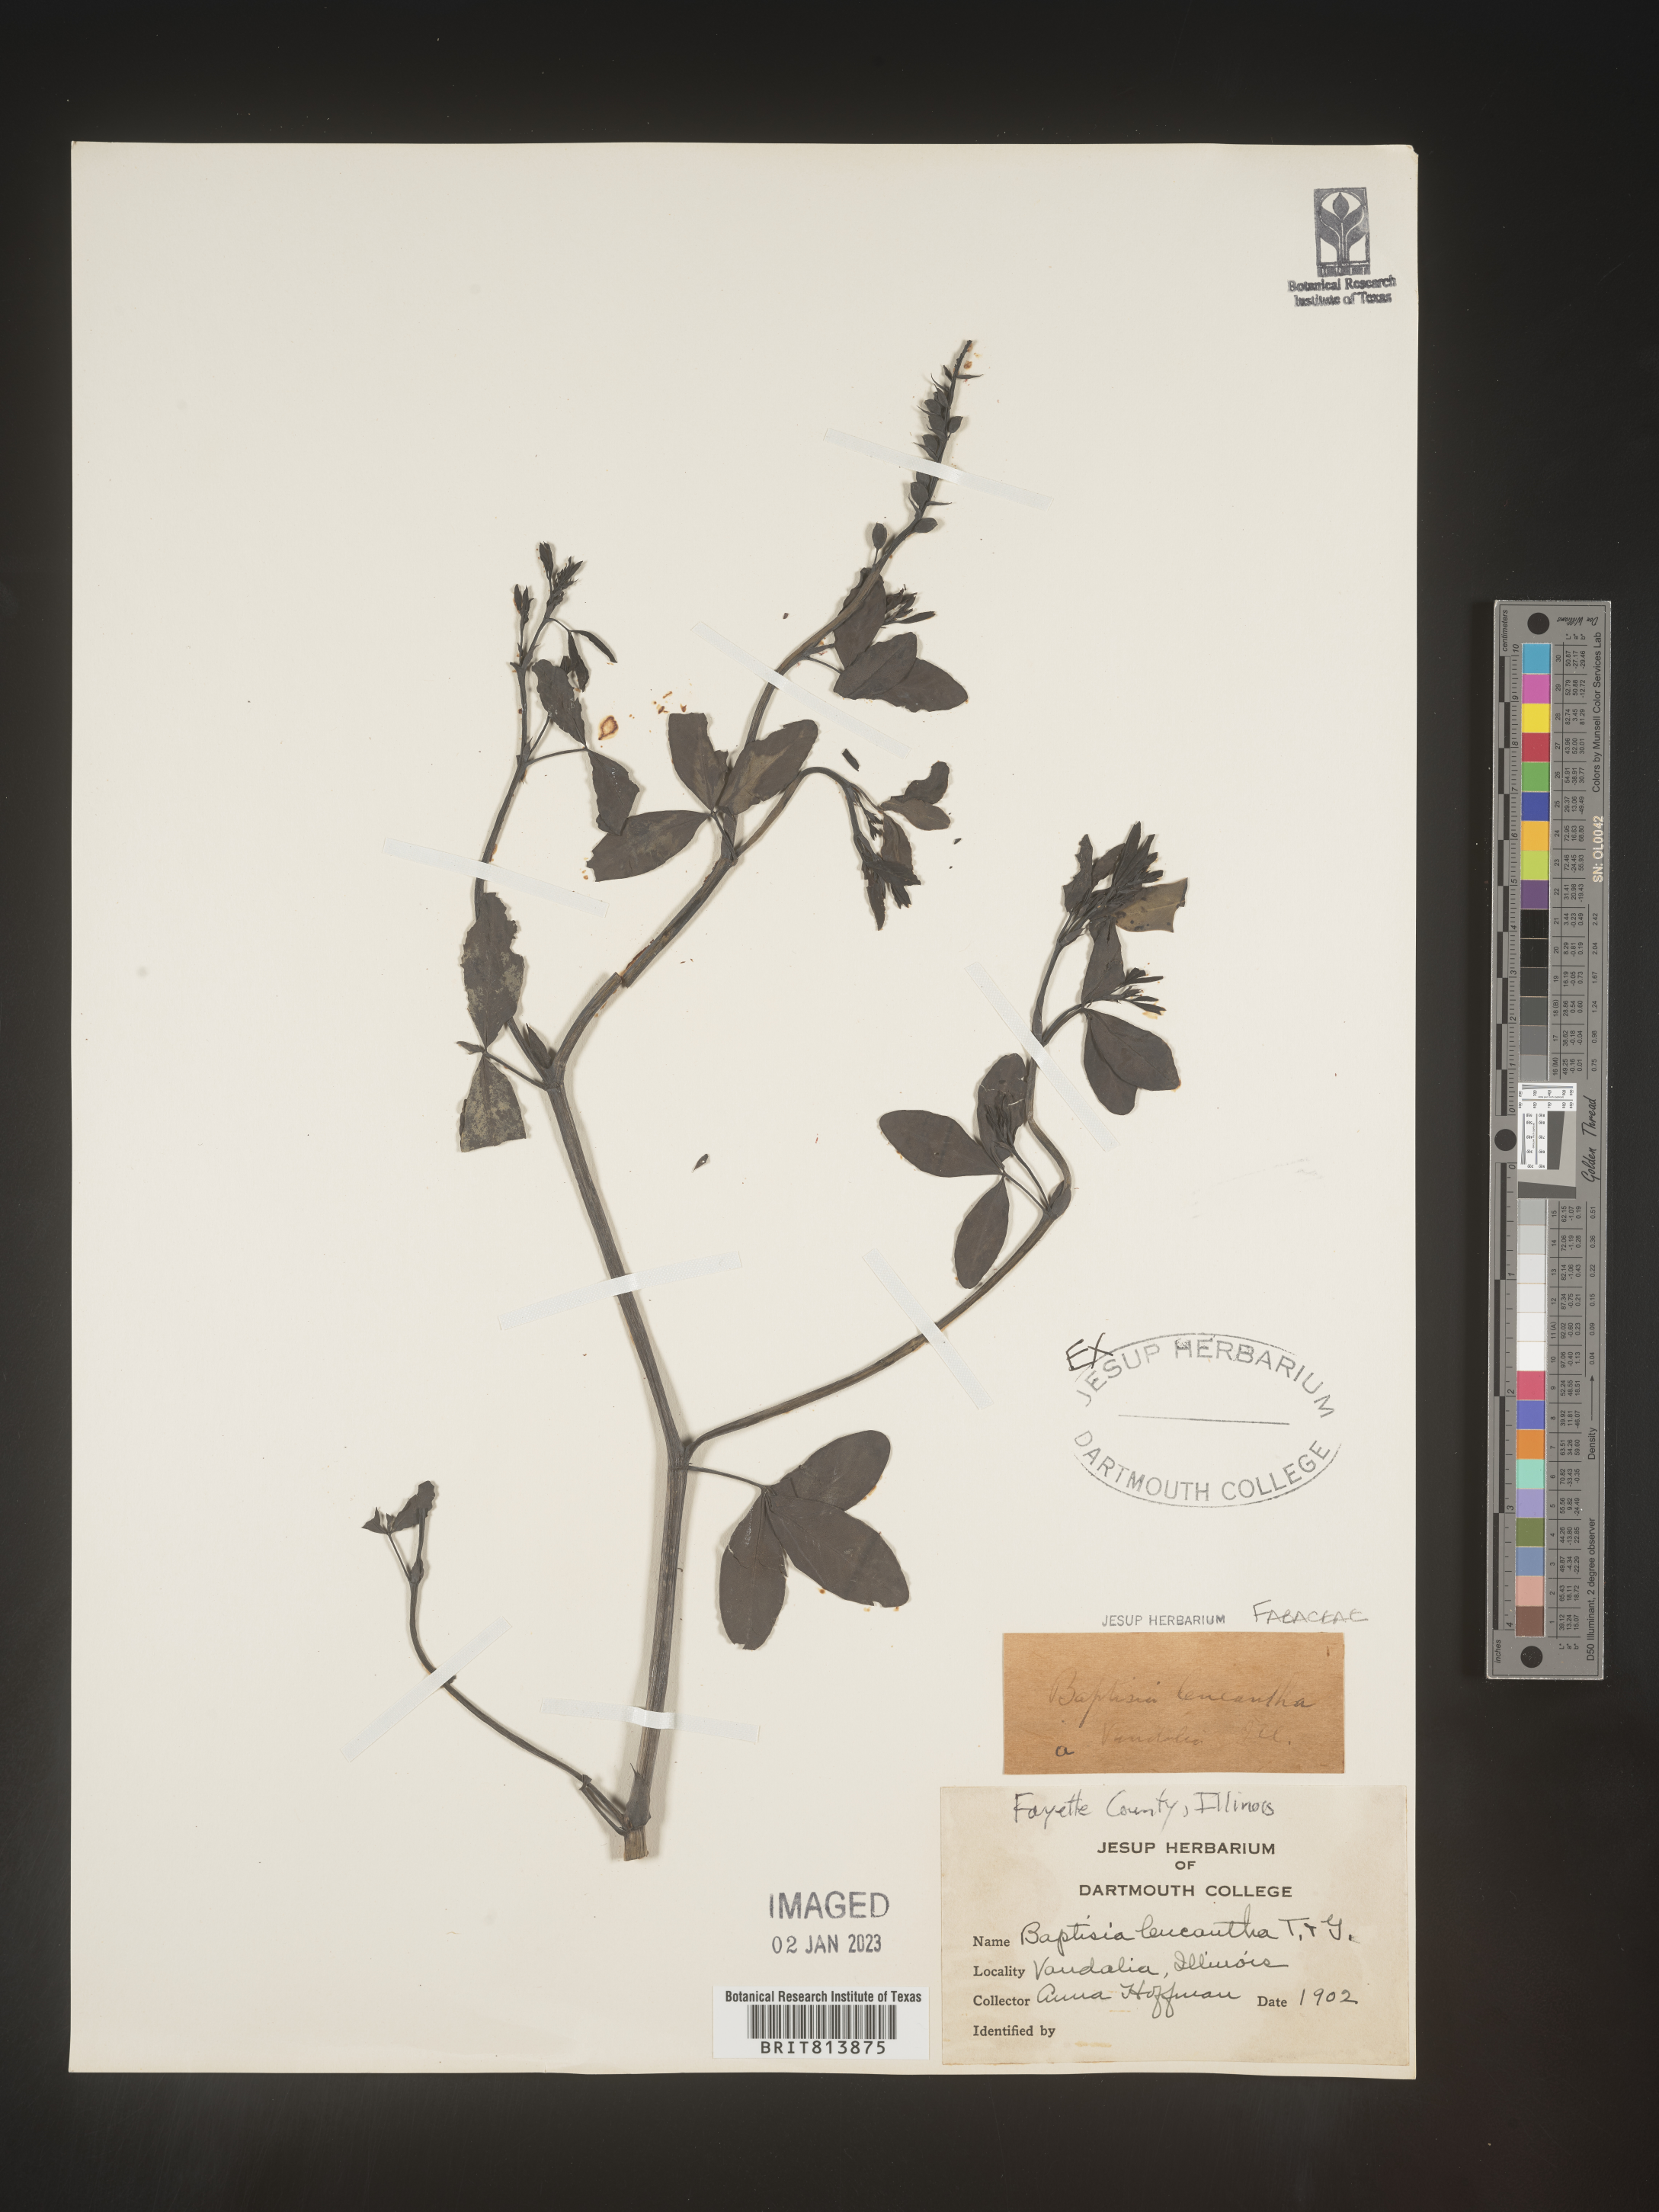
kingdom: Plantae
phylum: Tracheophyta
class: Magnoliopsida
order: Fabales
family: Fabaceae
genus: Baptisia
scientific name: Baptisia alba
